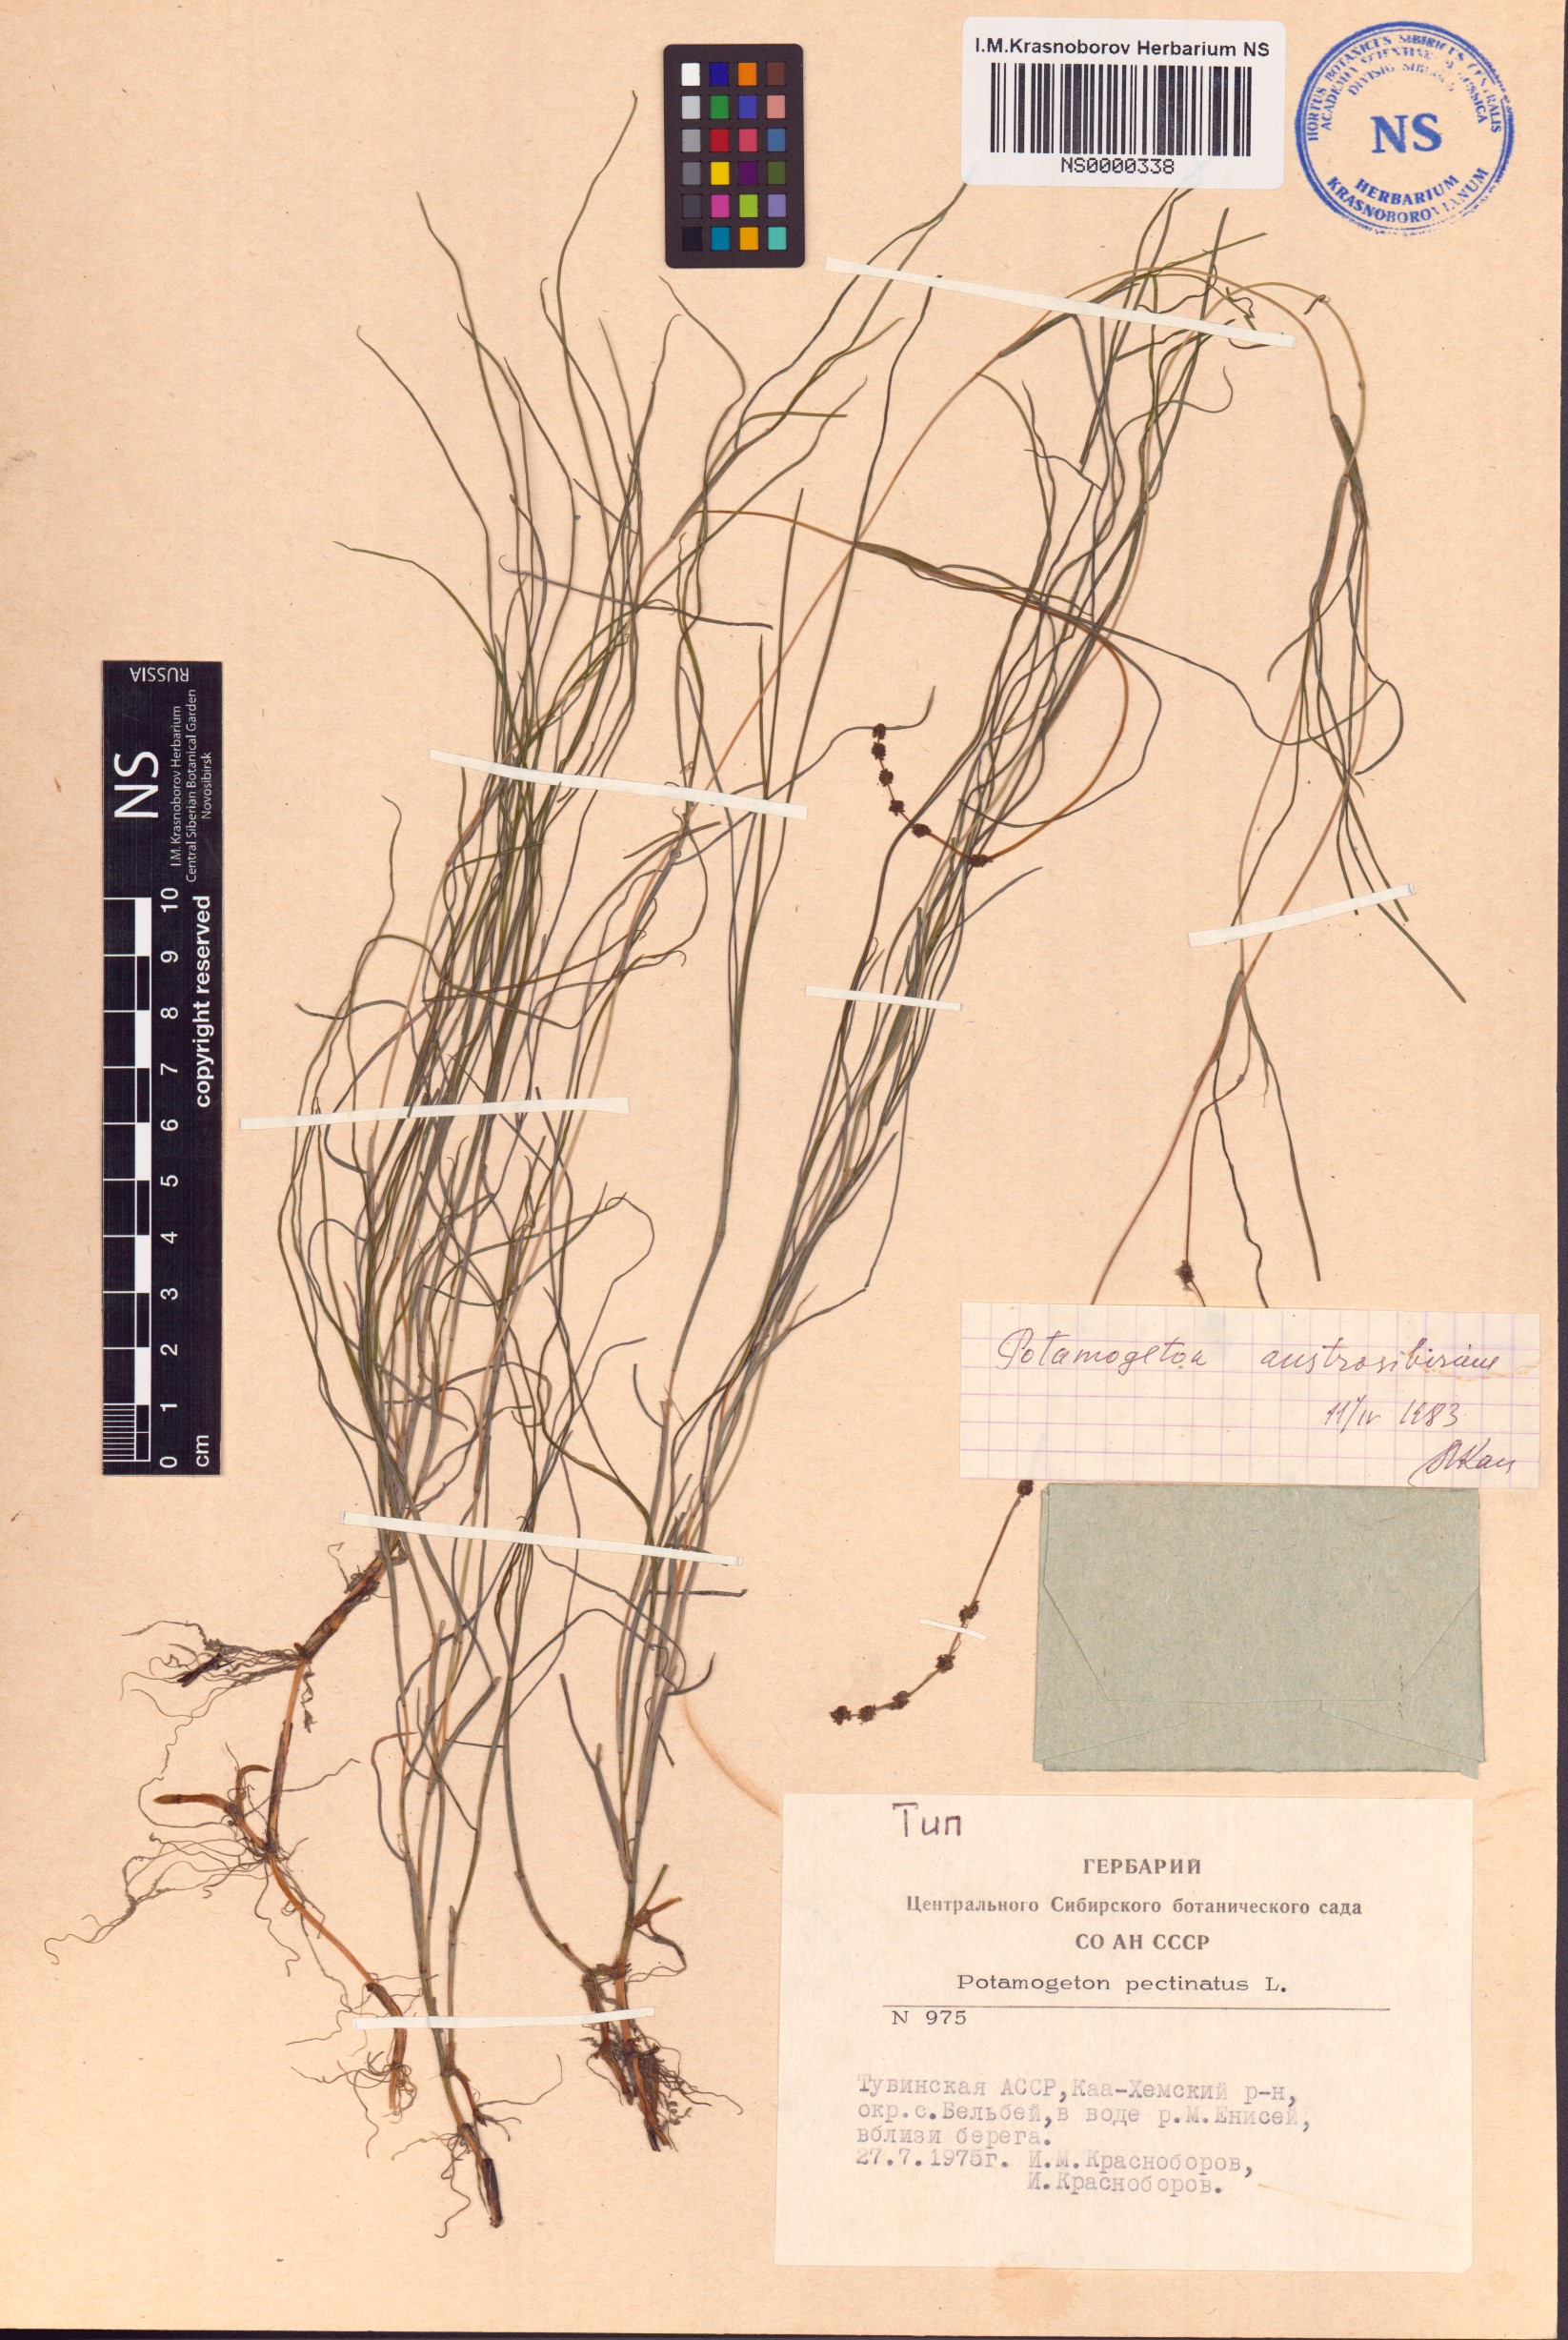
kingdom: Plantae
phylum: Tracheophyta
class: Liliopsida
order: Alismatales
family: Potamogetonaceae
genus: Stuckenia
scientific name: Stuckenia filiformis
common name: Alpine thread-leaved pondweed
